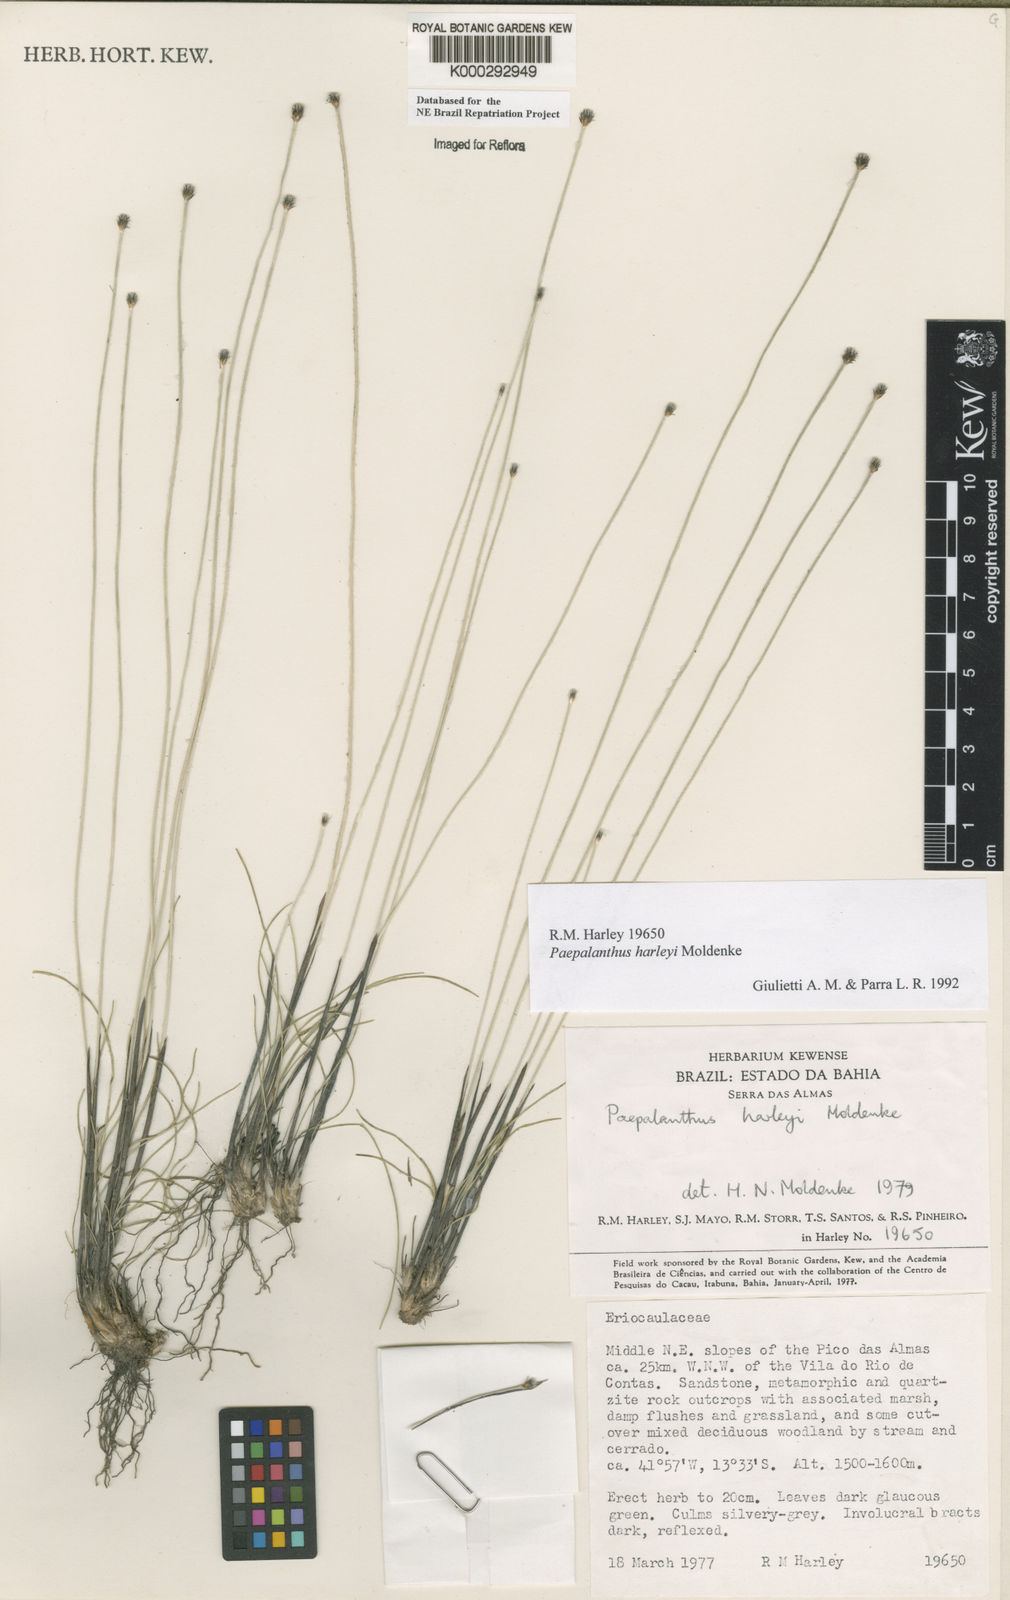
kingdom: Plantae
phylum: Tracheophyta
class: Liliopsida
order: Poales
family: Eriocaulaceae
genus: Paepalanthus
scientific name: Paepalanthus harleyi
